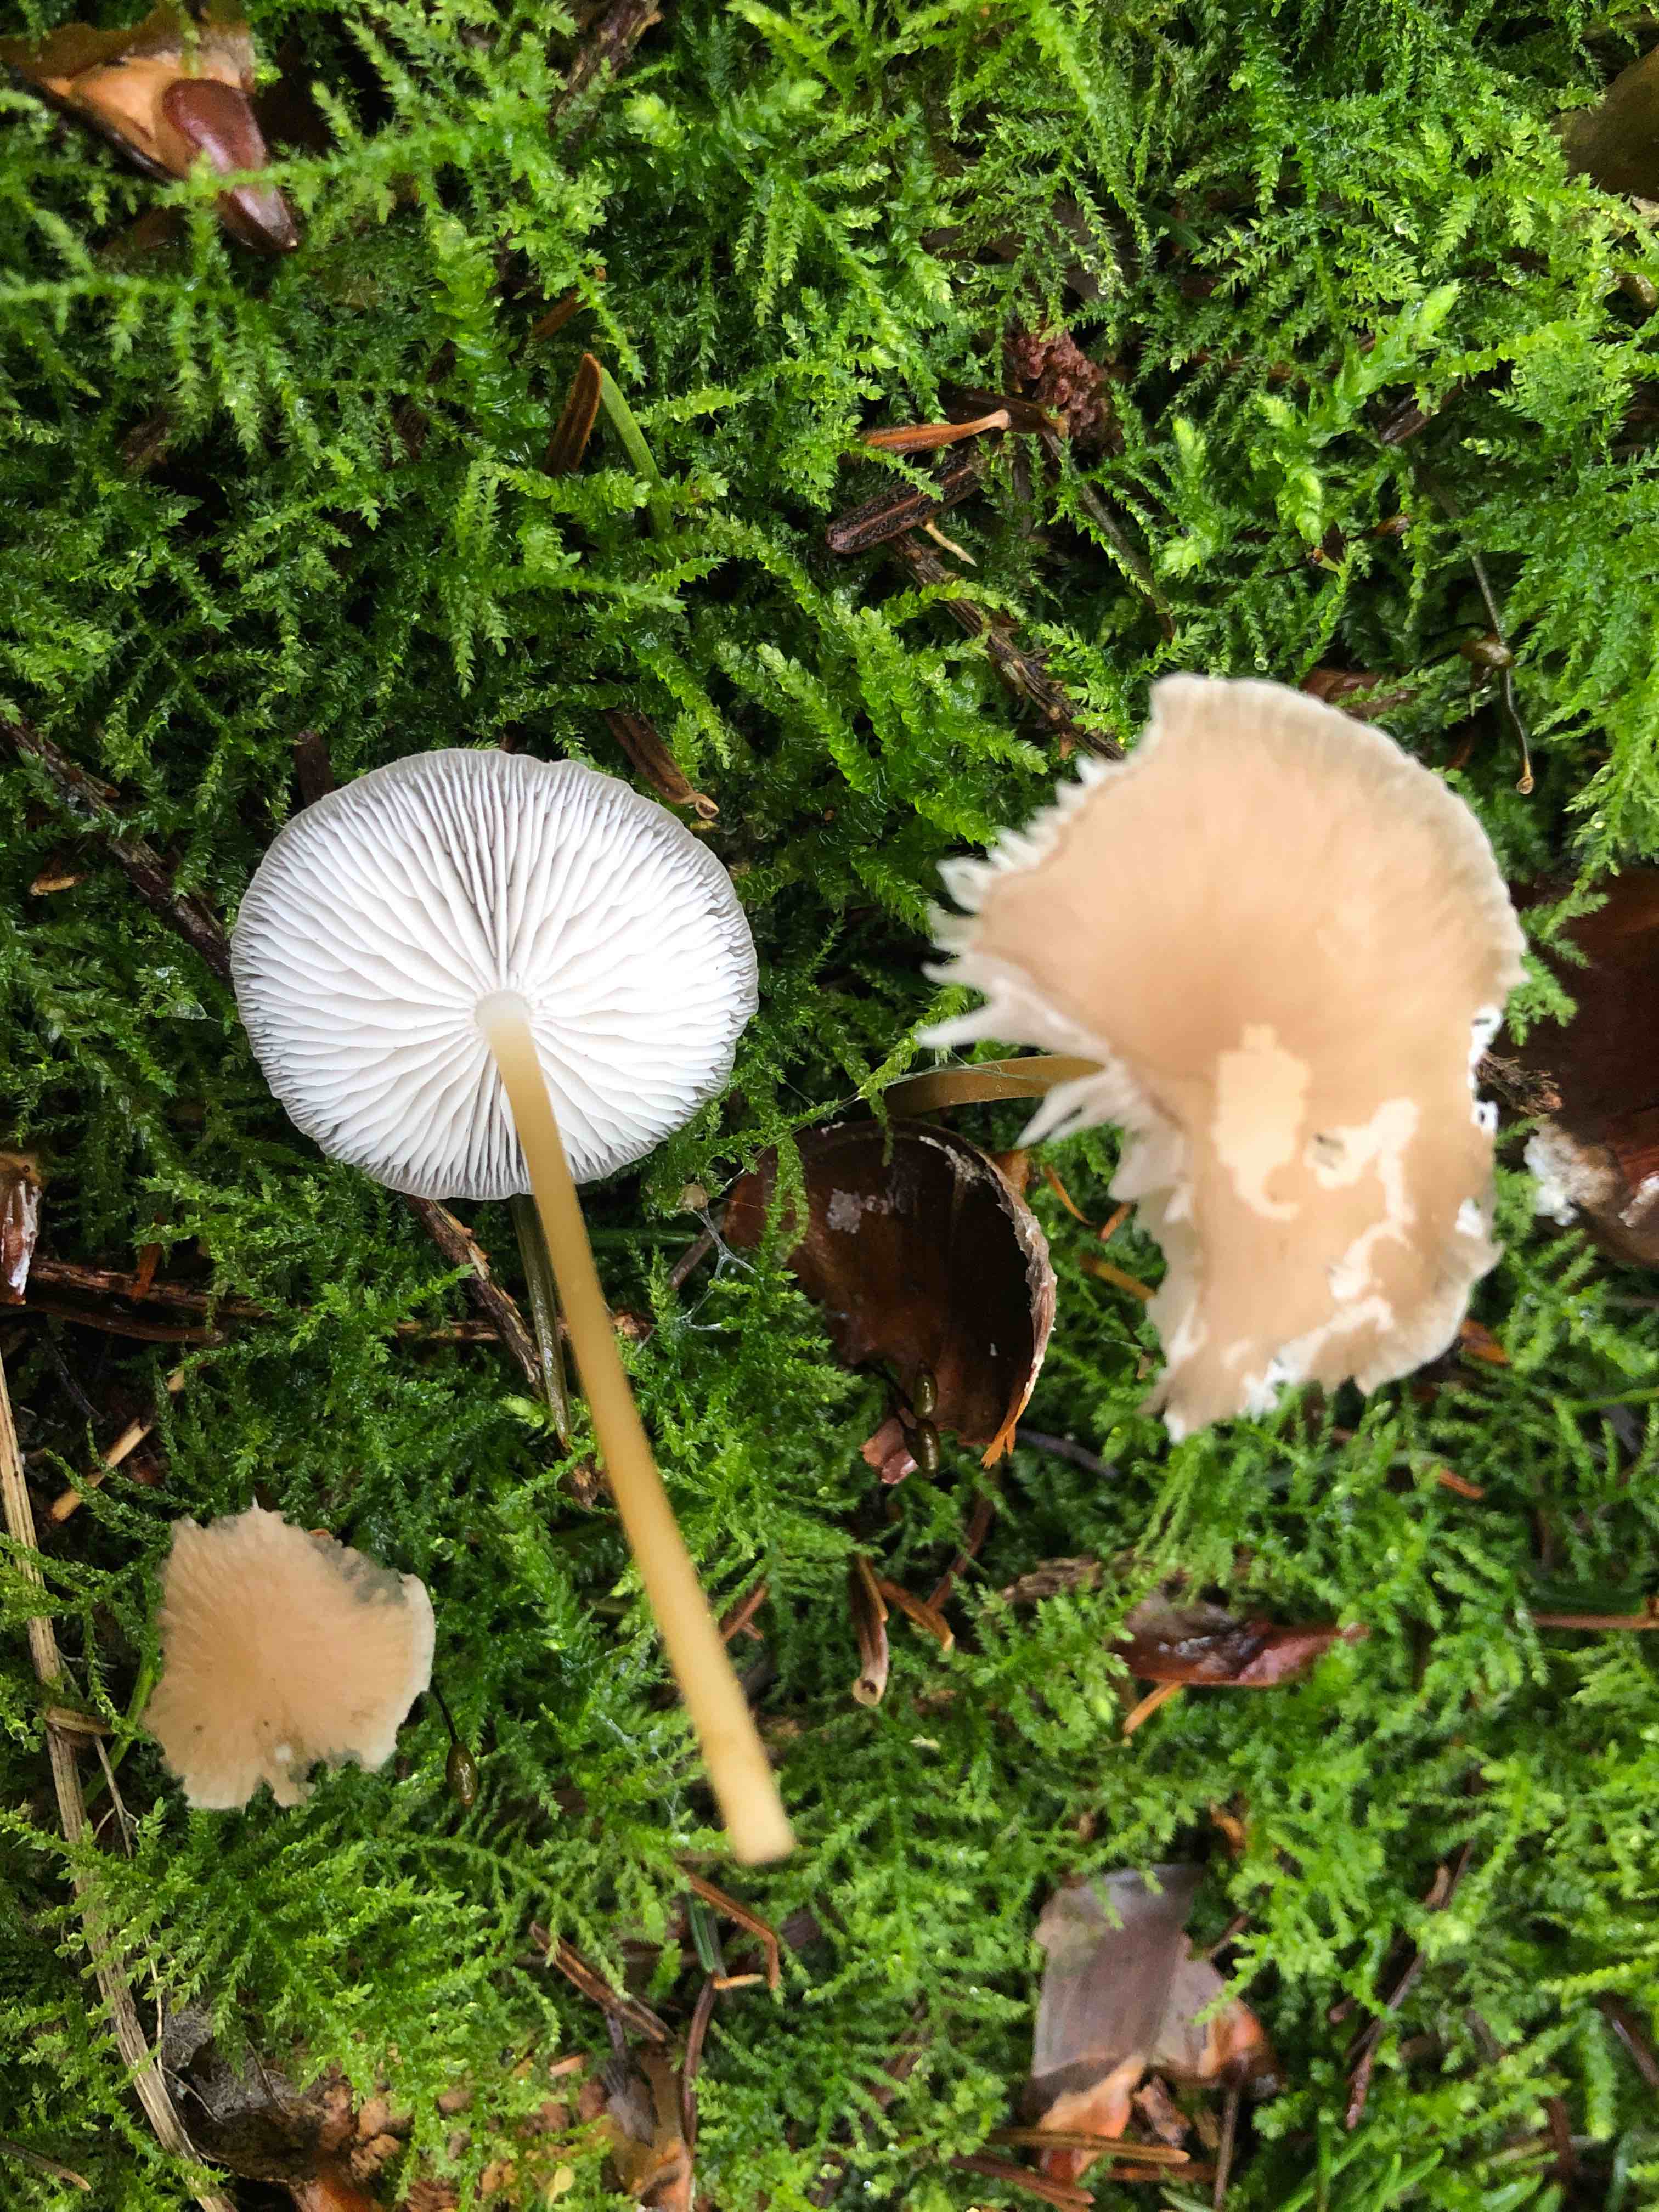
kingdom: Fungi
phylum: Basidiomycota
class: Agaricomycetes
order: Agaricales
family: Physalacriaceae
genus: Strobilurus
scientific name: Strobilurus esculentus
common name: gran-koglehat
